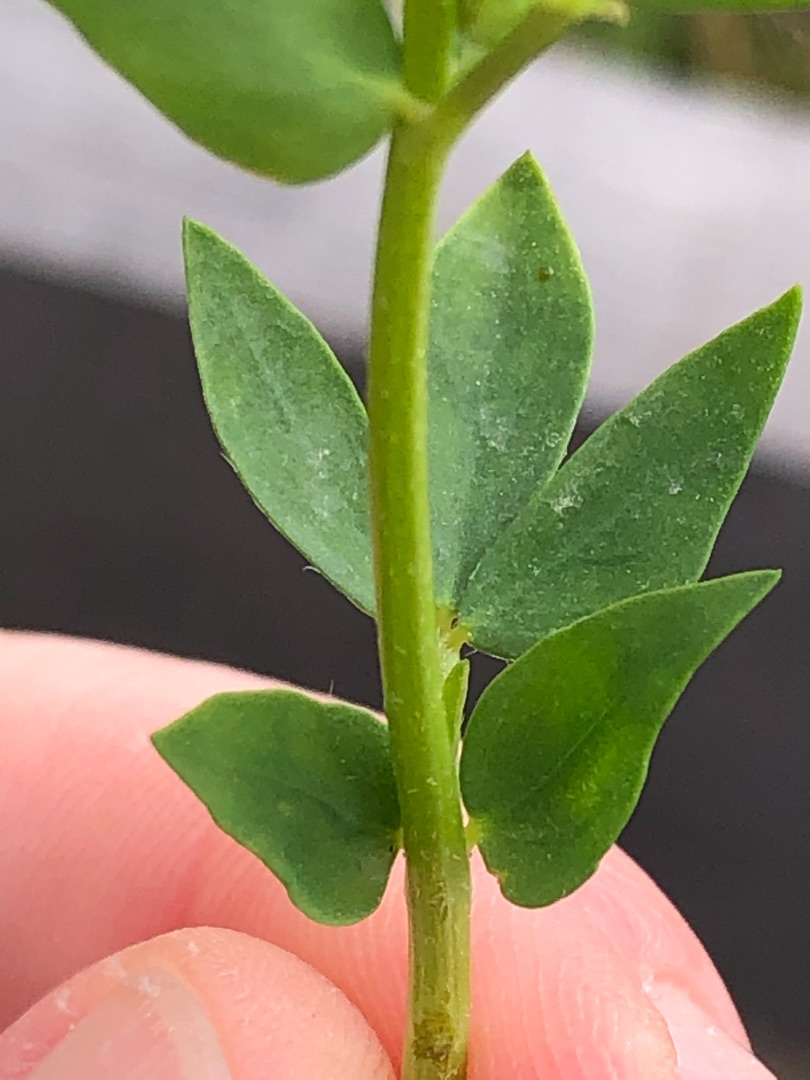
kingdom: Plantae
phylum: Tracheophyta
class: Magnoliopsida
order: Fabales
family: Fabaceae
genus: Lotus
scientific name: Lotus corniculatus
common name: Foder-kællingetand
